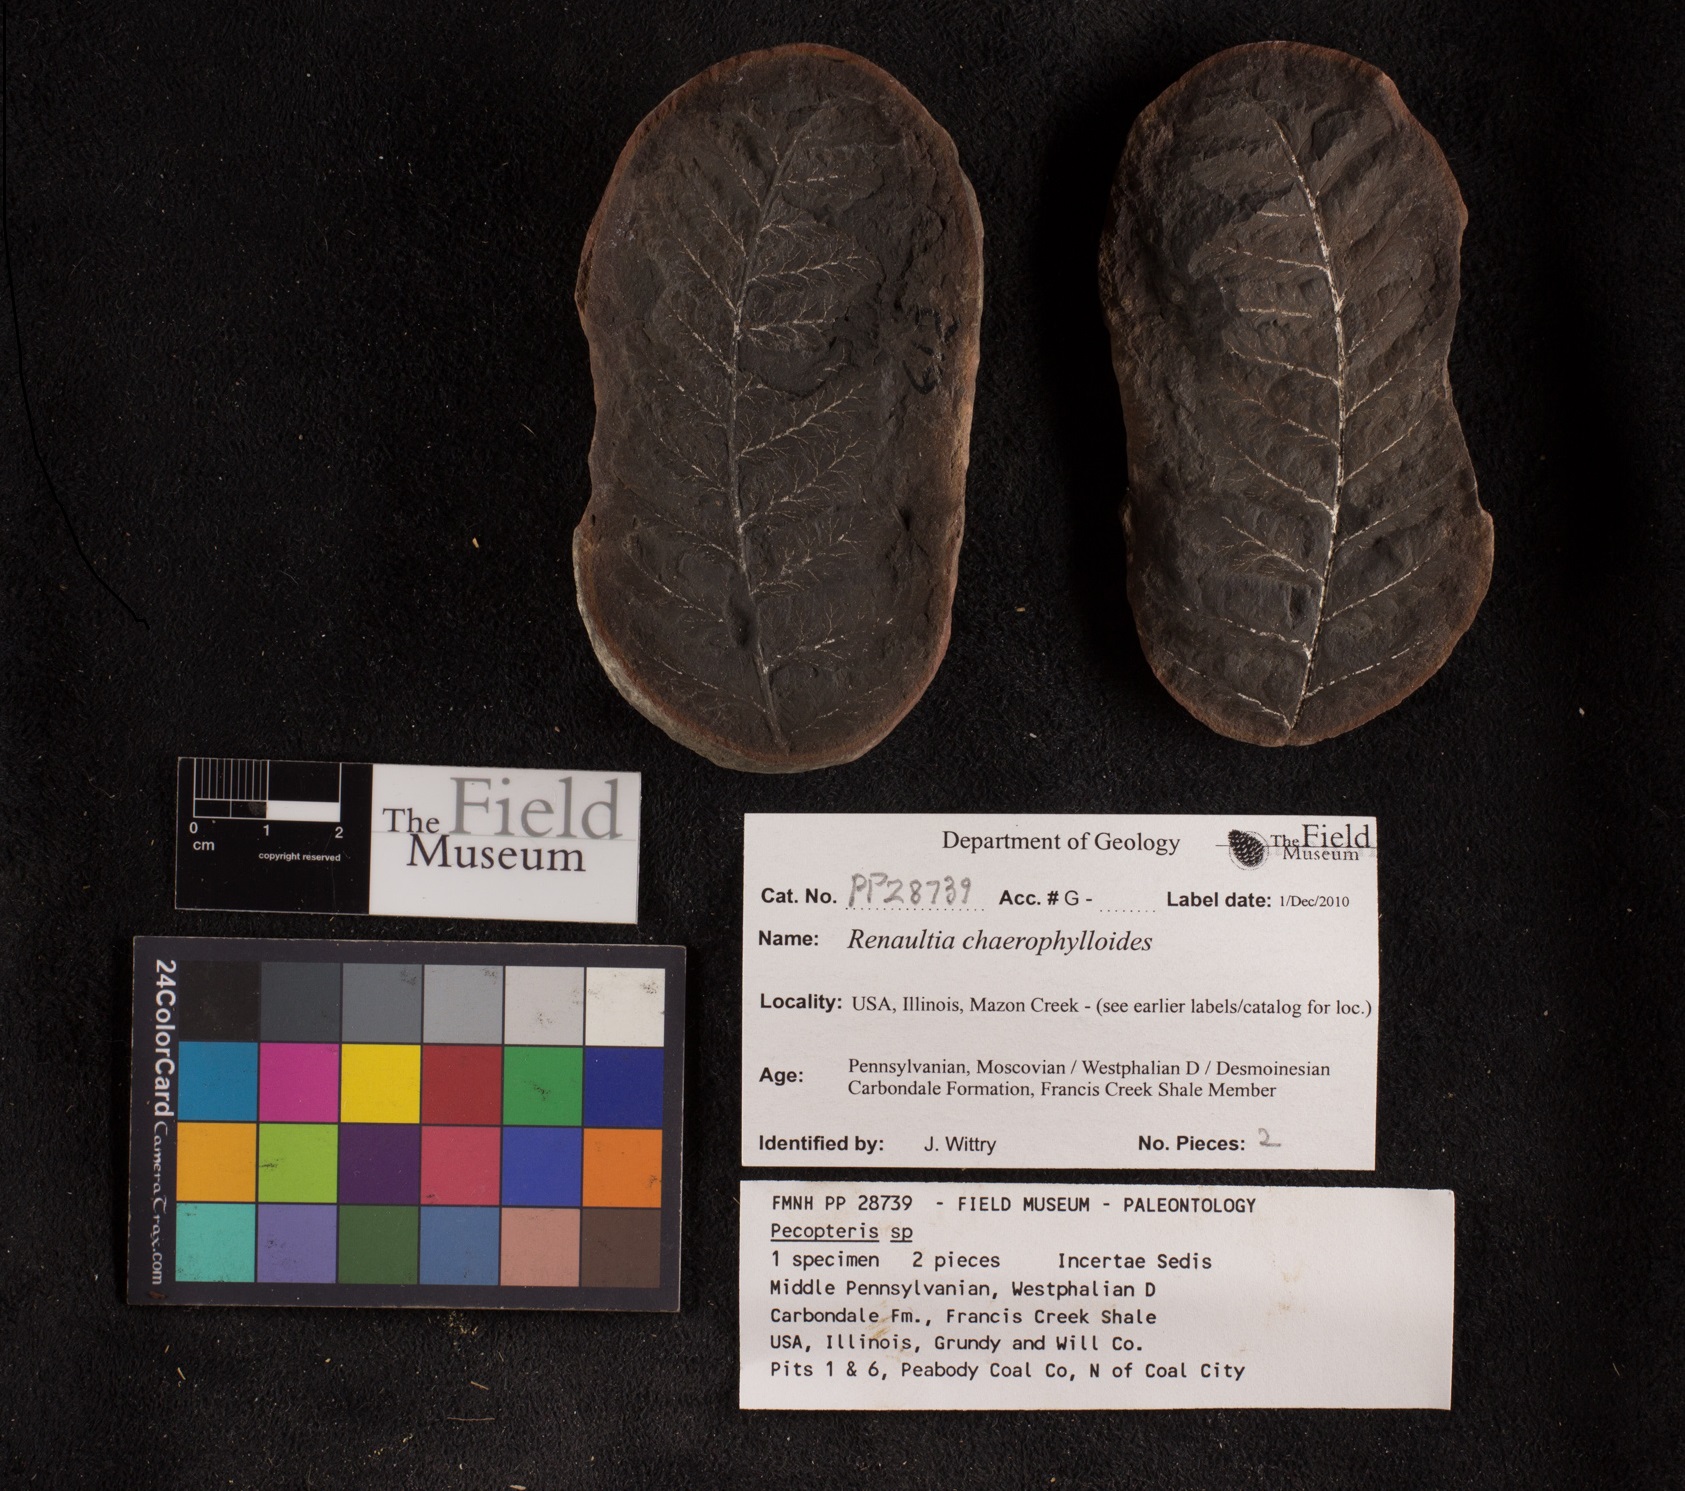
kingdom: Plantae
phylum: Tracheophyta
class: Polypodiopsida
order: Marattiales
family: Marattiaceae
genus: Renaultia
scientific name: Renaultia chaerophylloides
